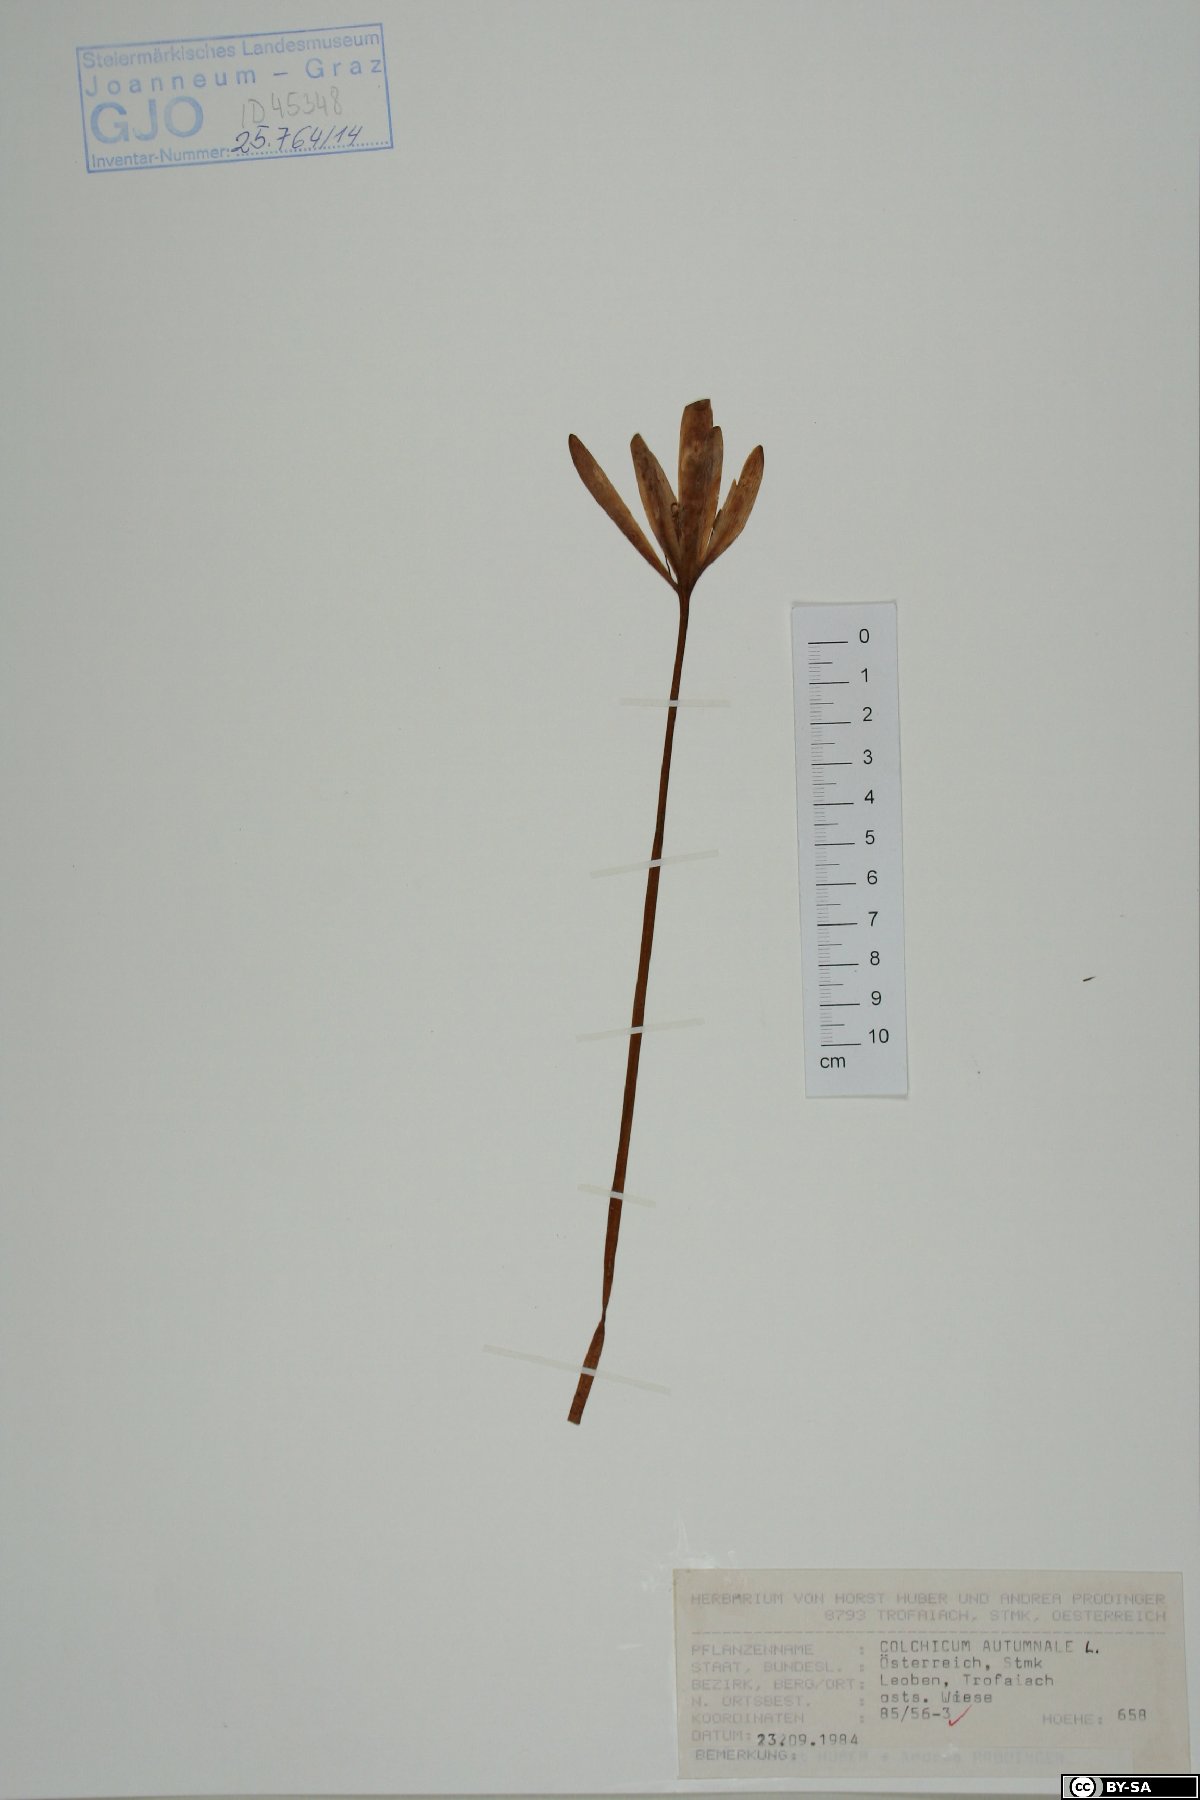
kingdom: Plantae
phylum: Tracheophyta
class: Liliopsida
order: Liliales
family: Colchicaceae
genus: Colchicum
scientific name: Colchicum autumnale
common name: Autumn crocus
